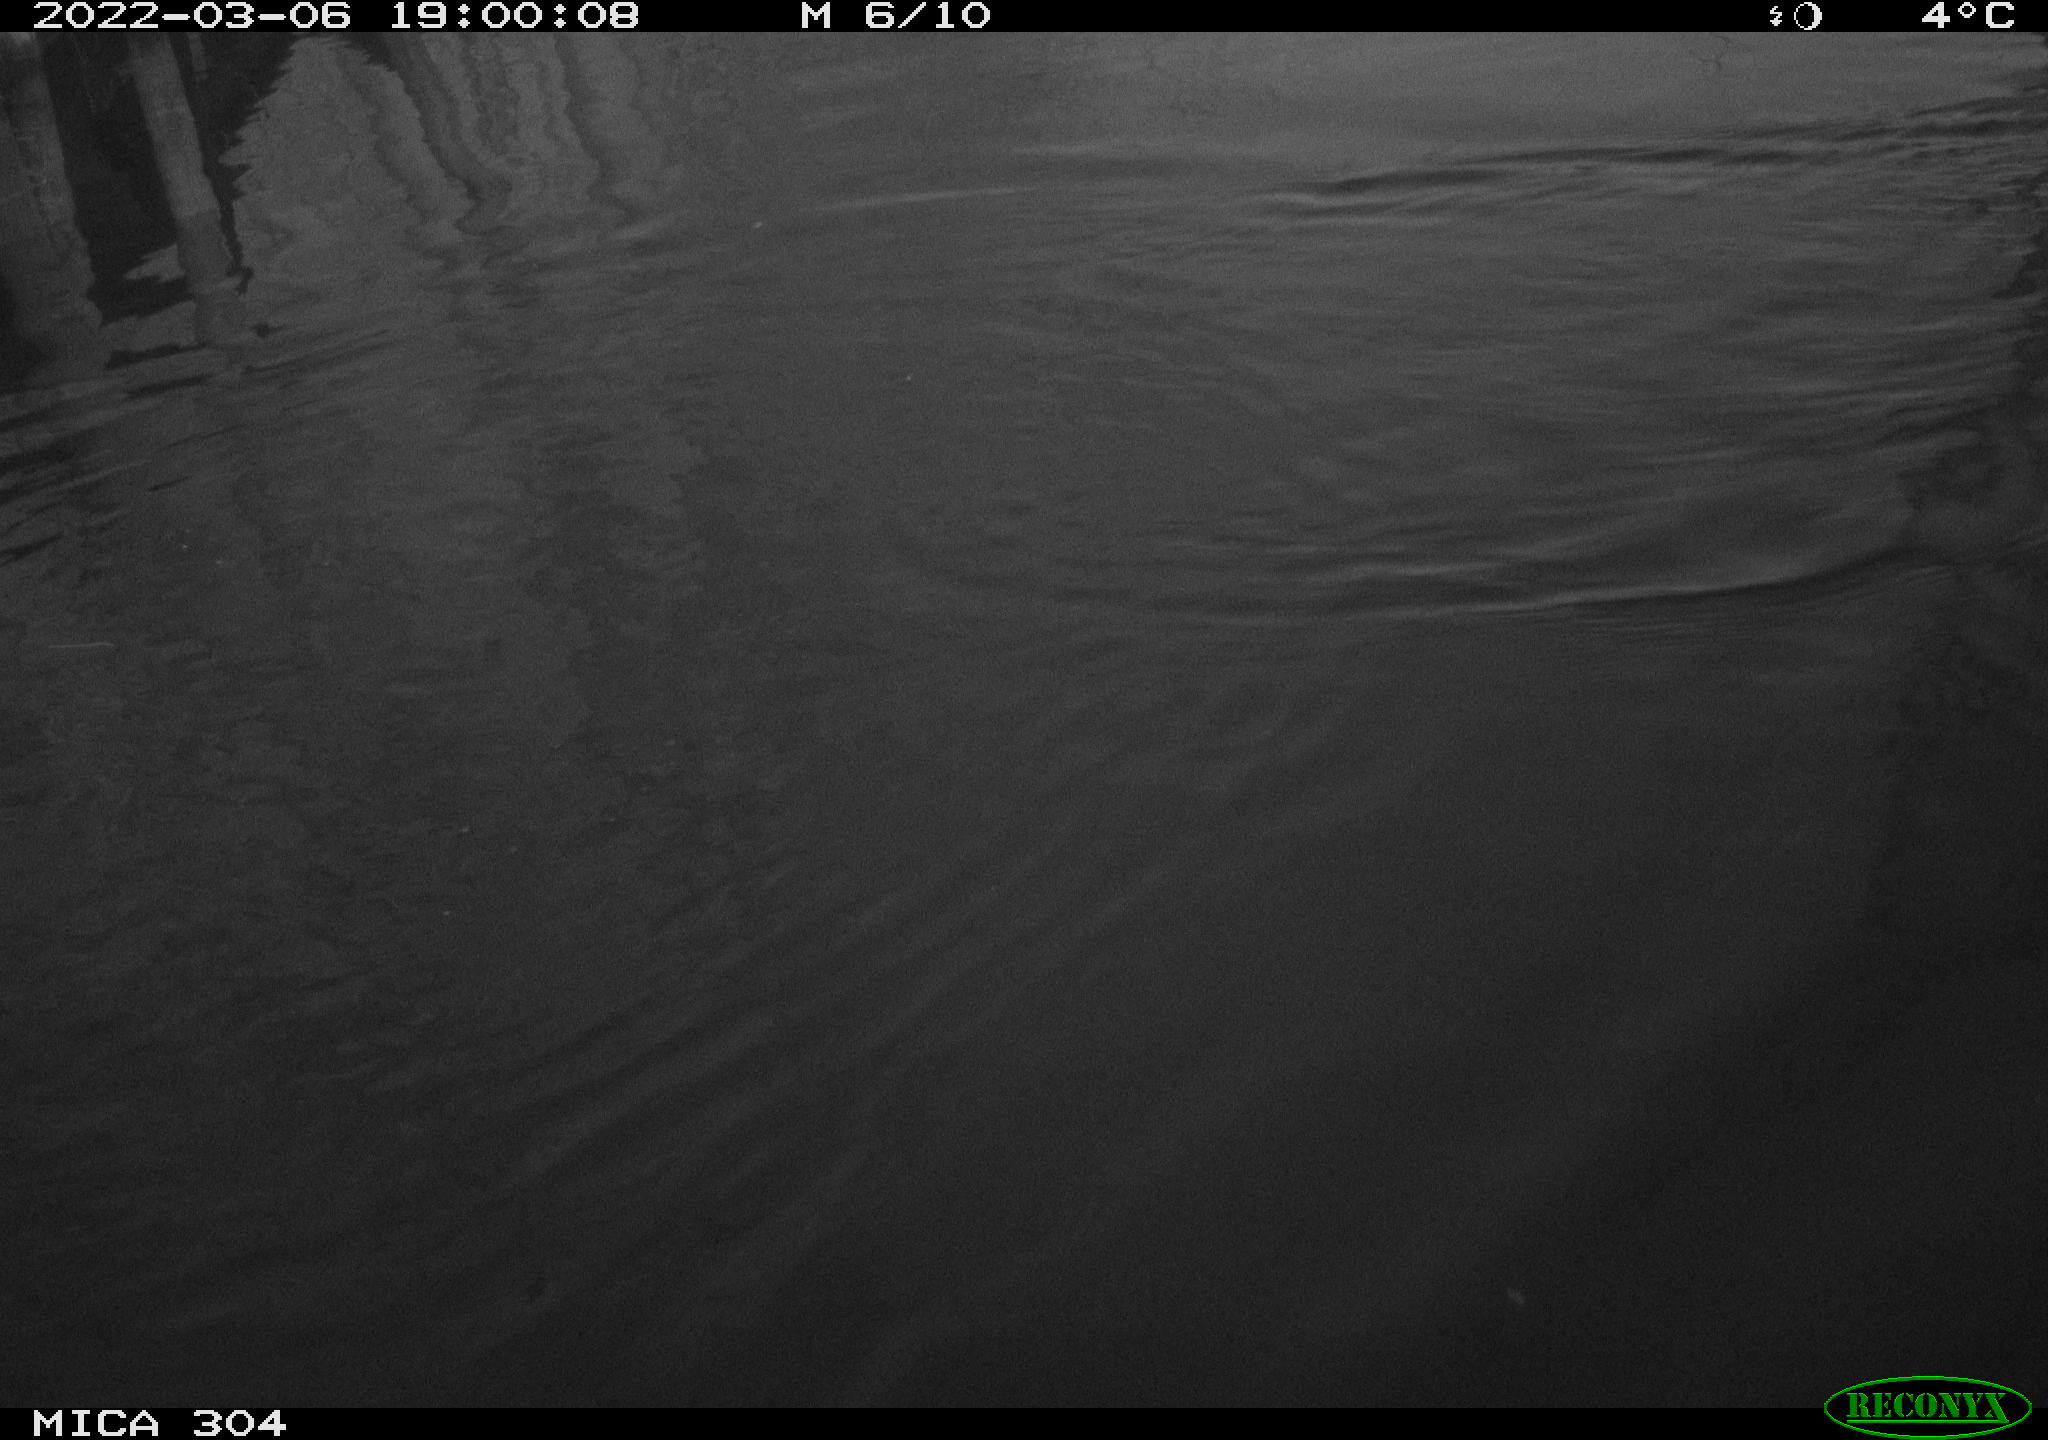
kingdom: Animalia
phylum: Chordata
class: Mammalia
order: Rodentia
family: Muridae
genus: Rattus
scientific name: Rattus norvegicus
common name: Brown rat
